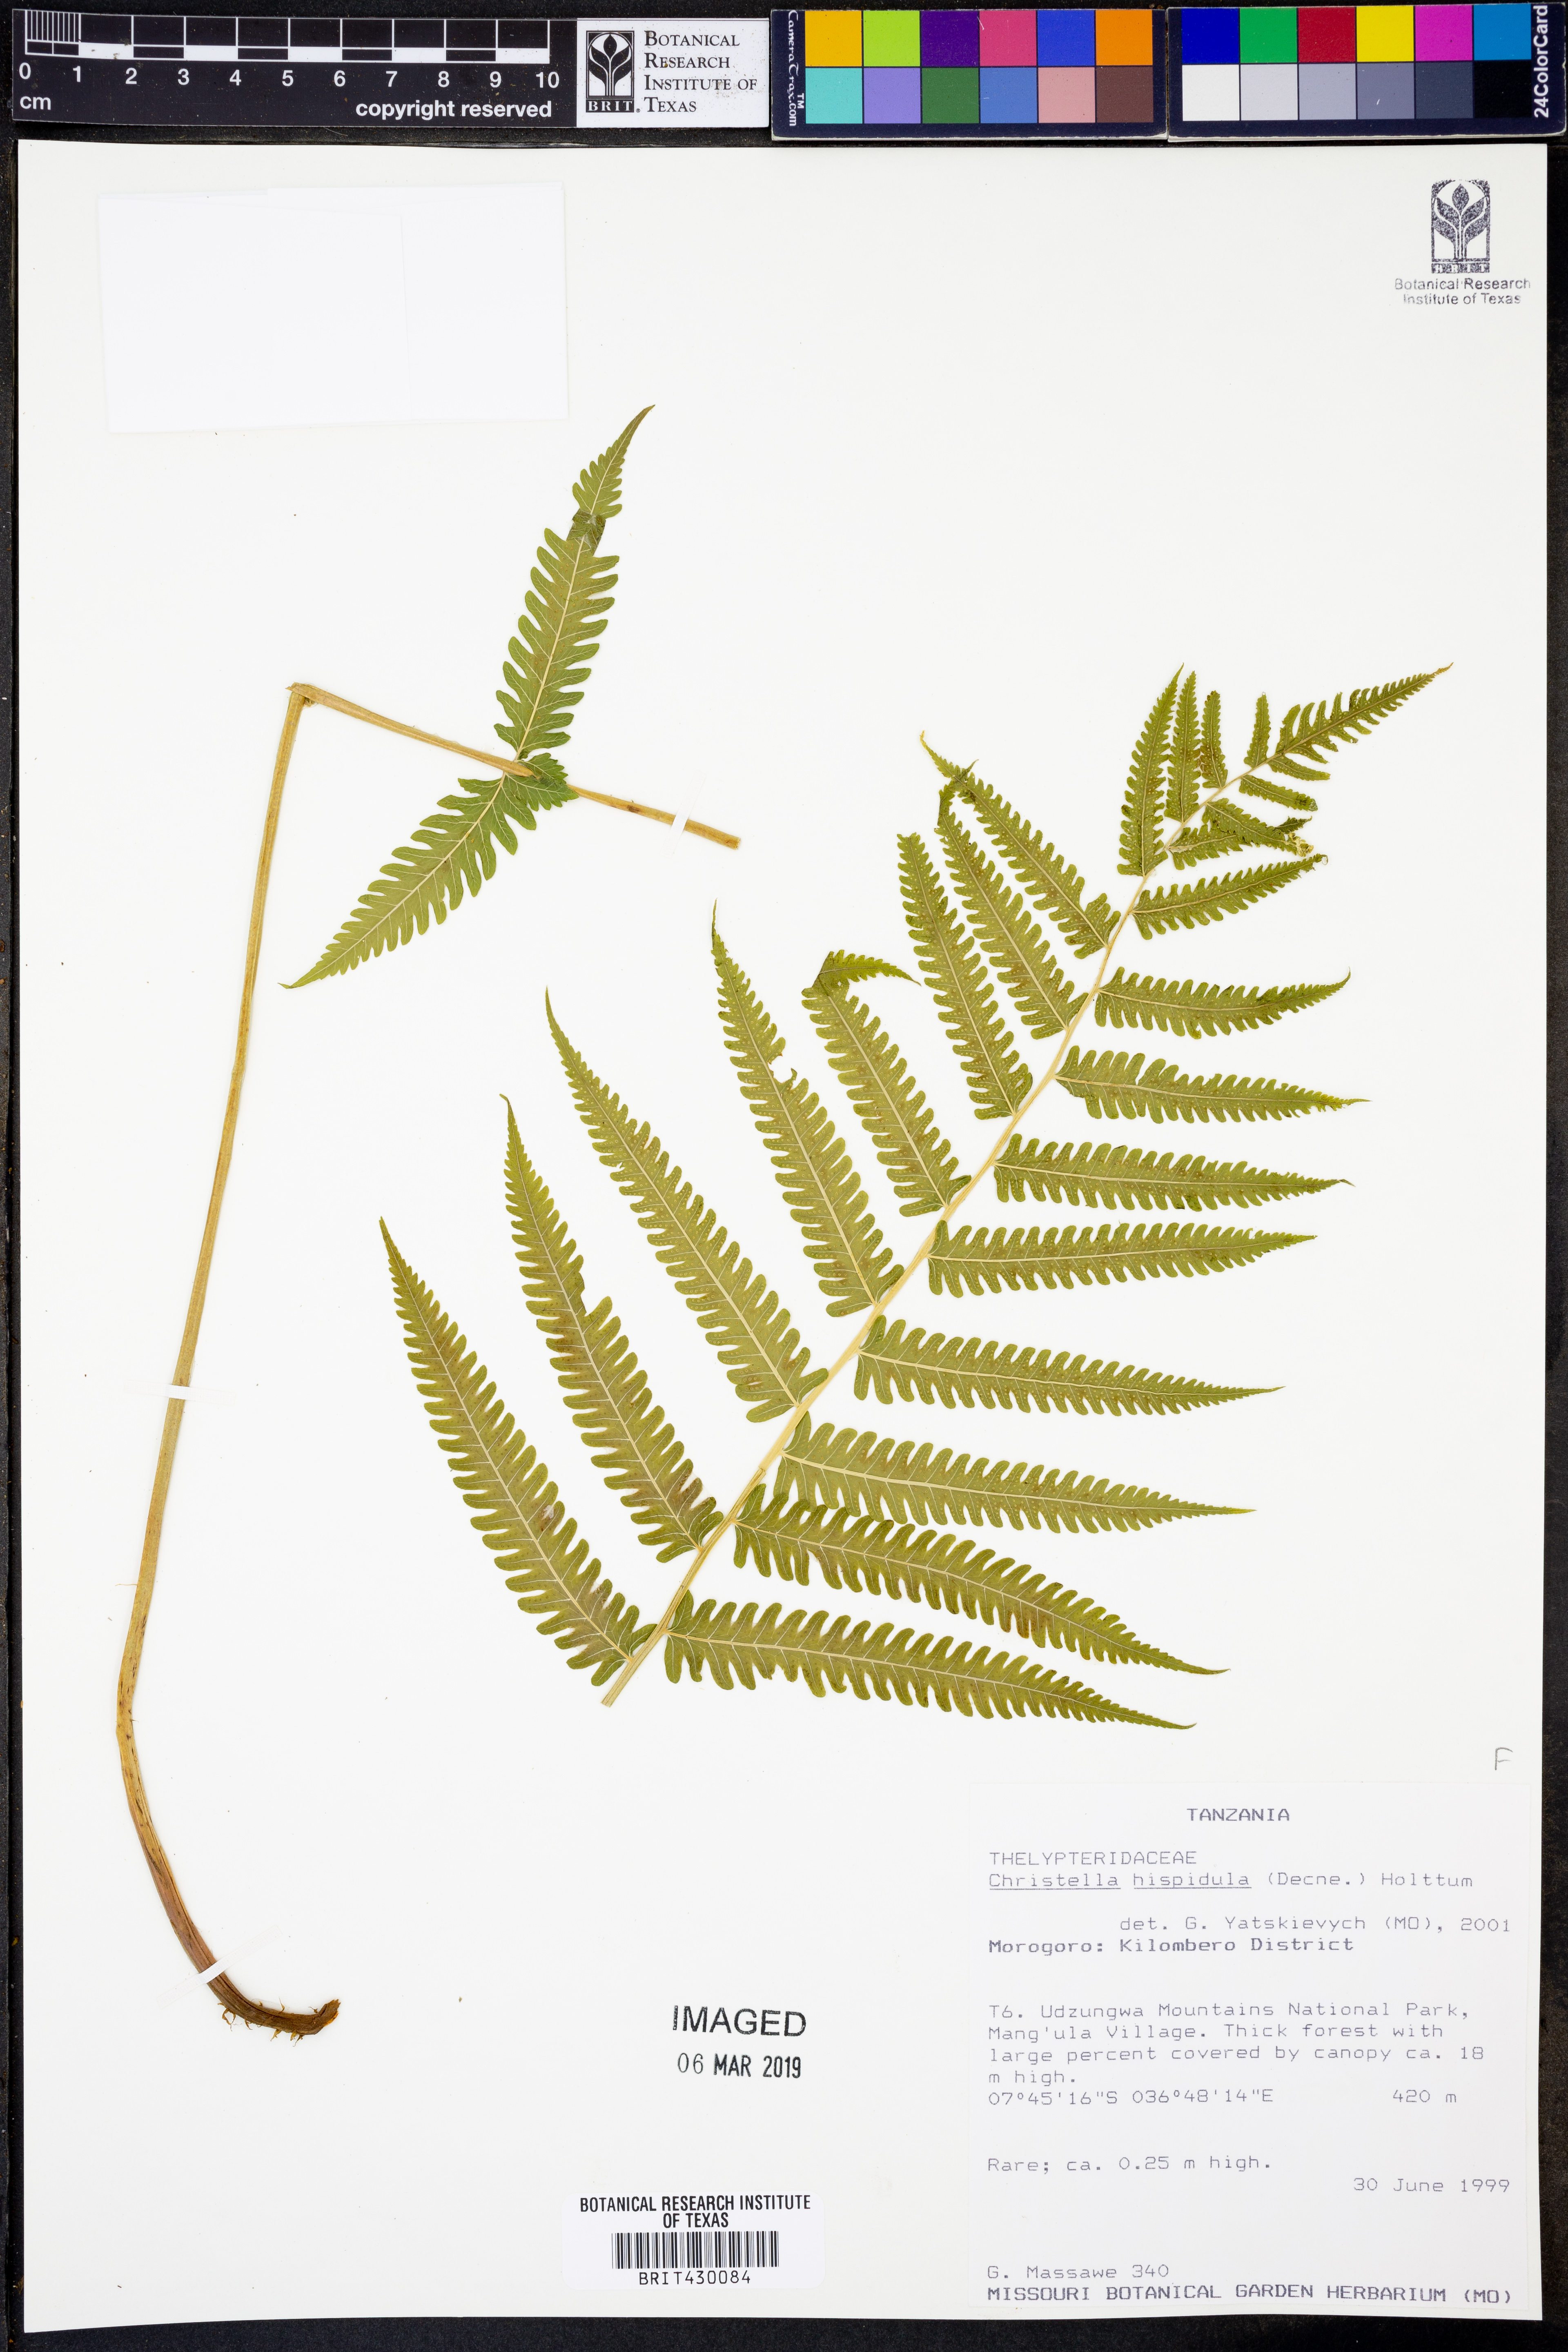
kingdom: Plantae
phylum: Tracheophyta
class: Polypodiopsida
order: Polypodiales
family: Thelypteridaceae
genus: Christella
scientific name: Christella hispidula
